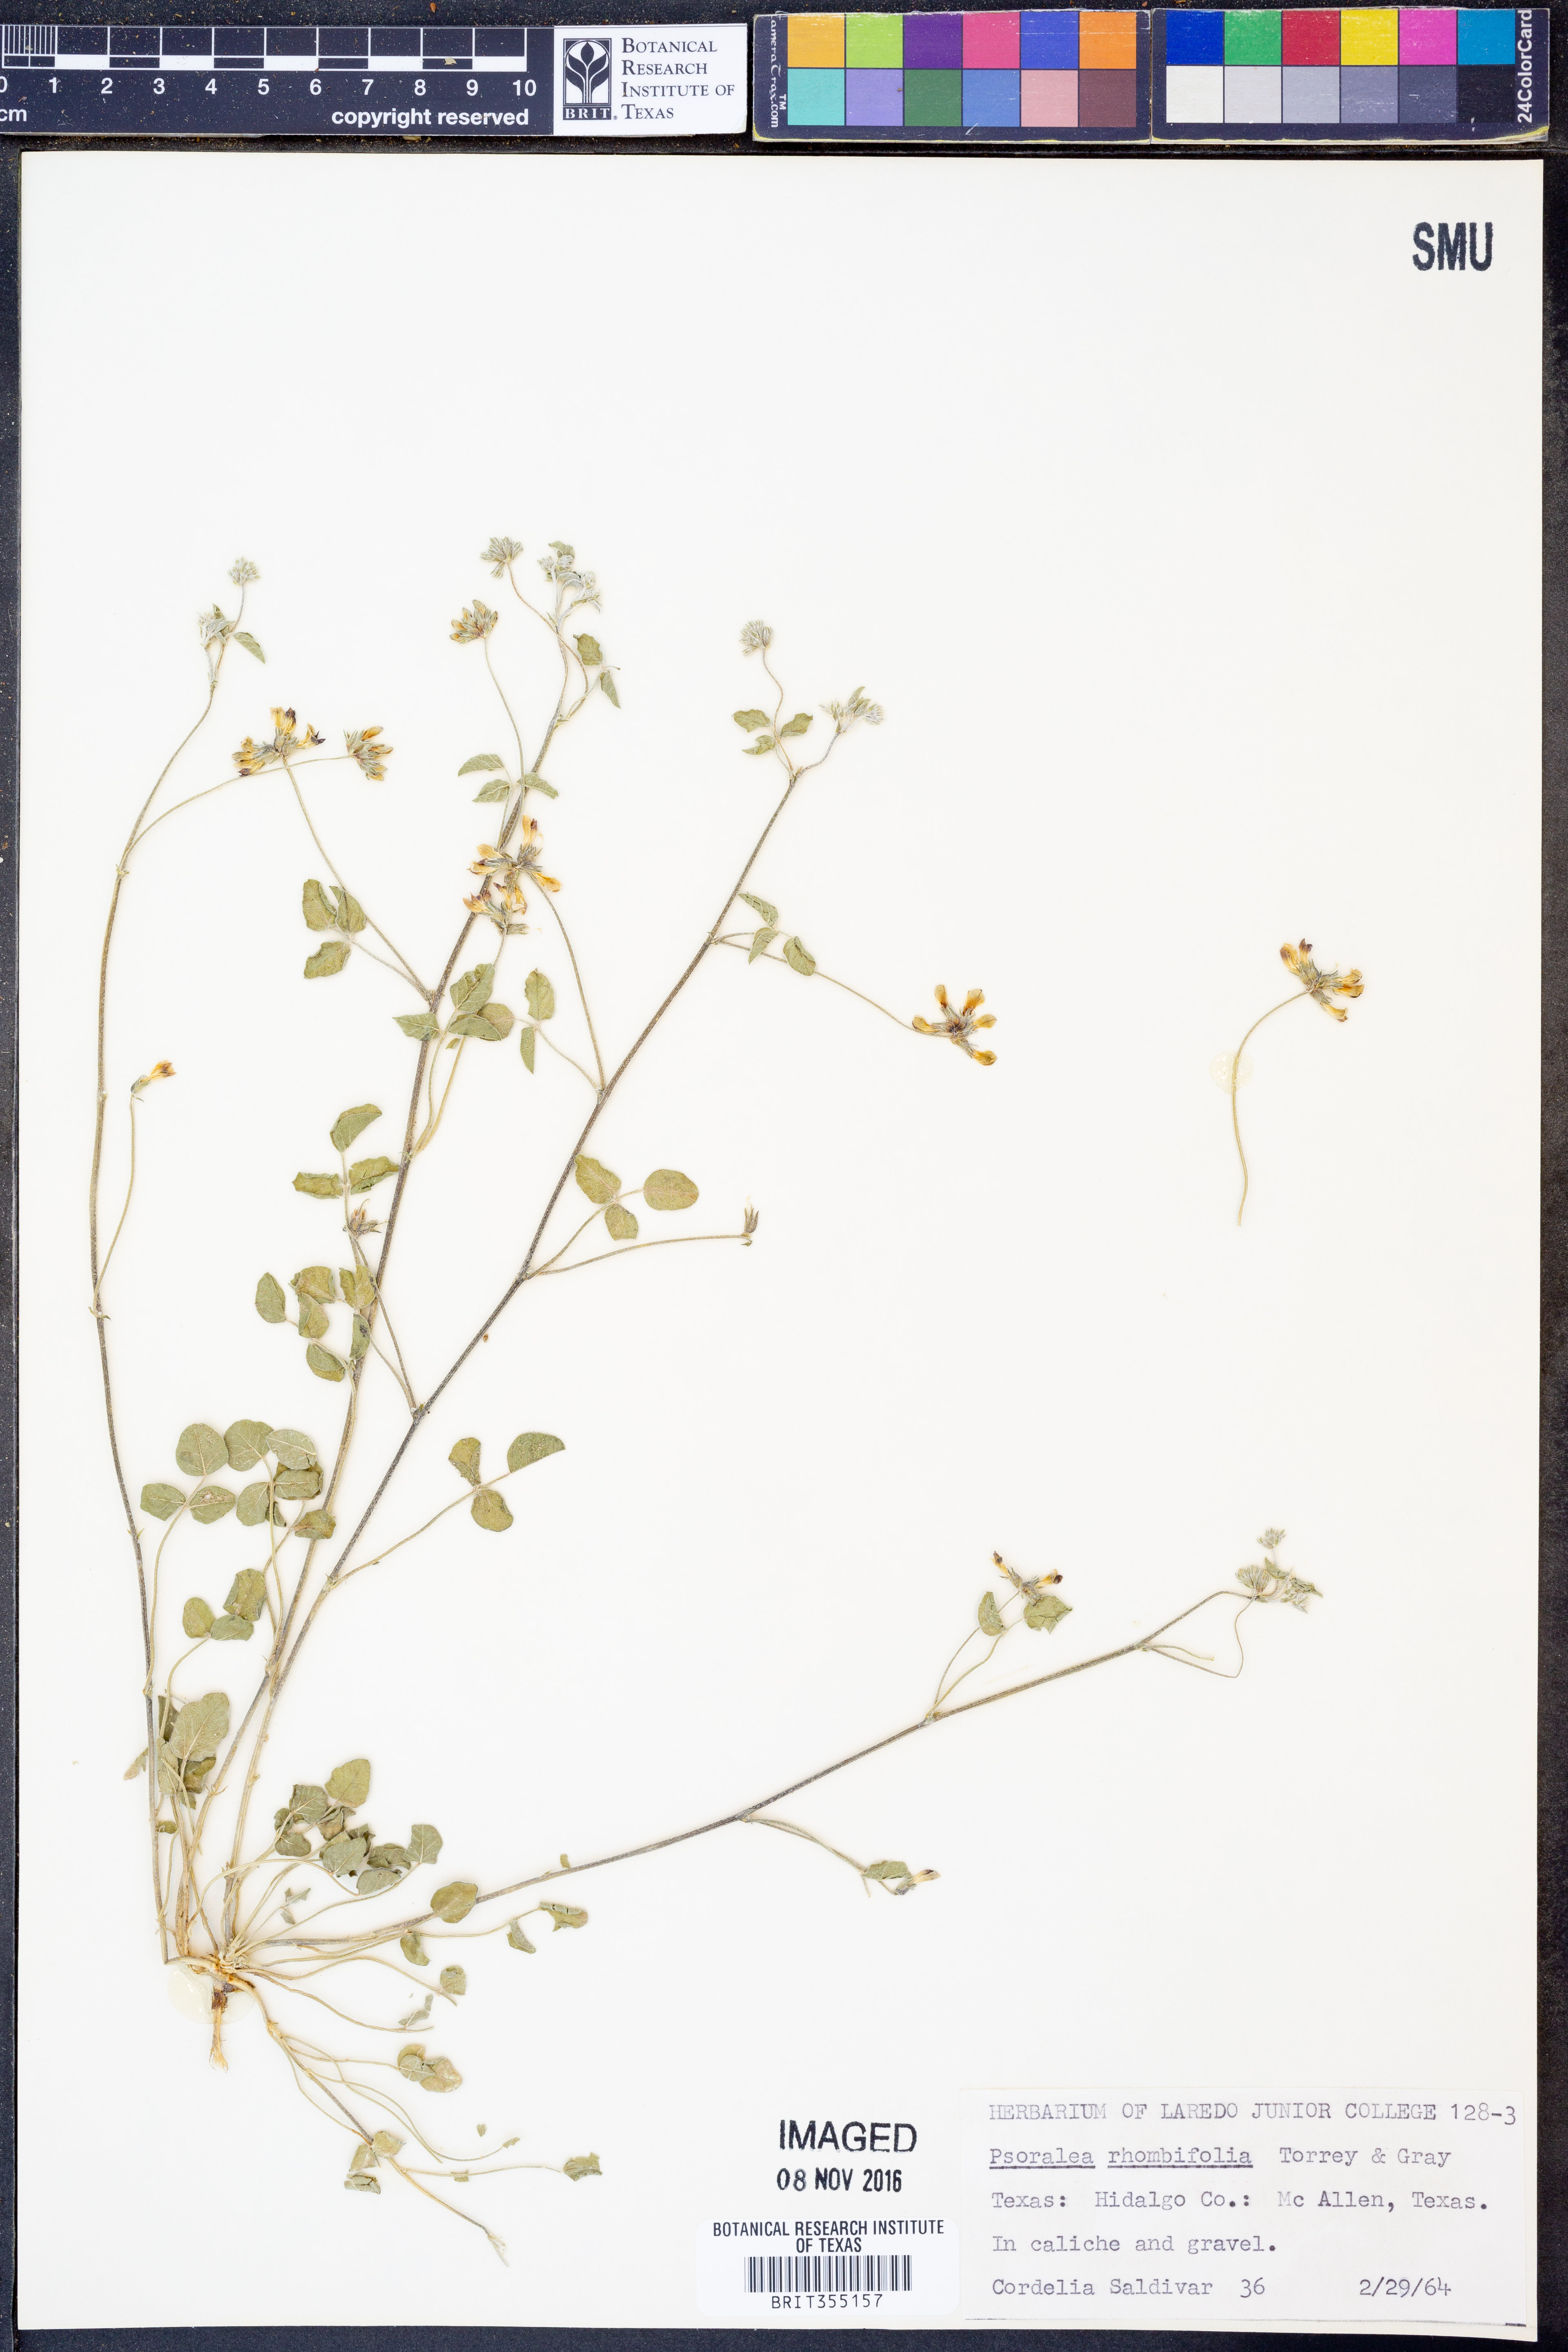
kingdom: Plantae
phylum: Tracheophyta
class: Magnoliopsida
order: Fabales
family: Fabaceae
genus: Pediomelum
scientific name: Pediomelum rhombifolium
